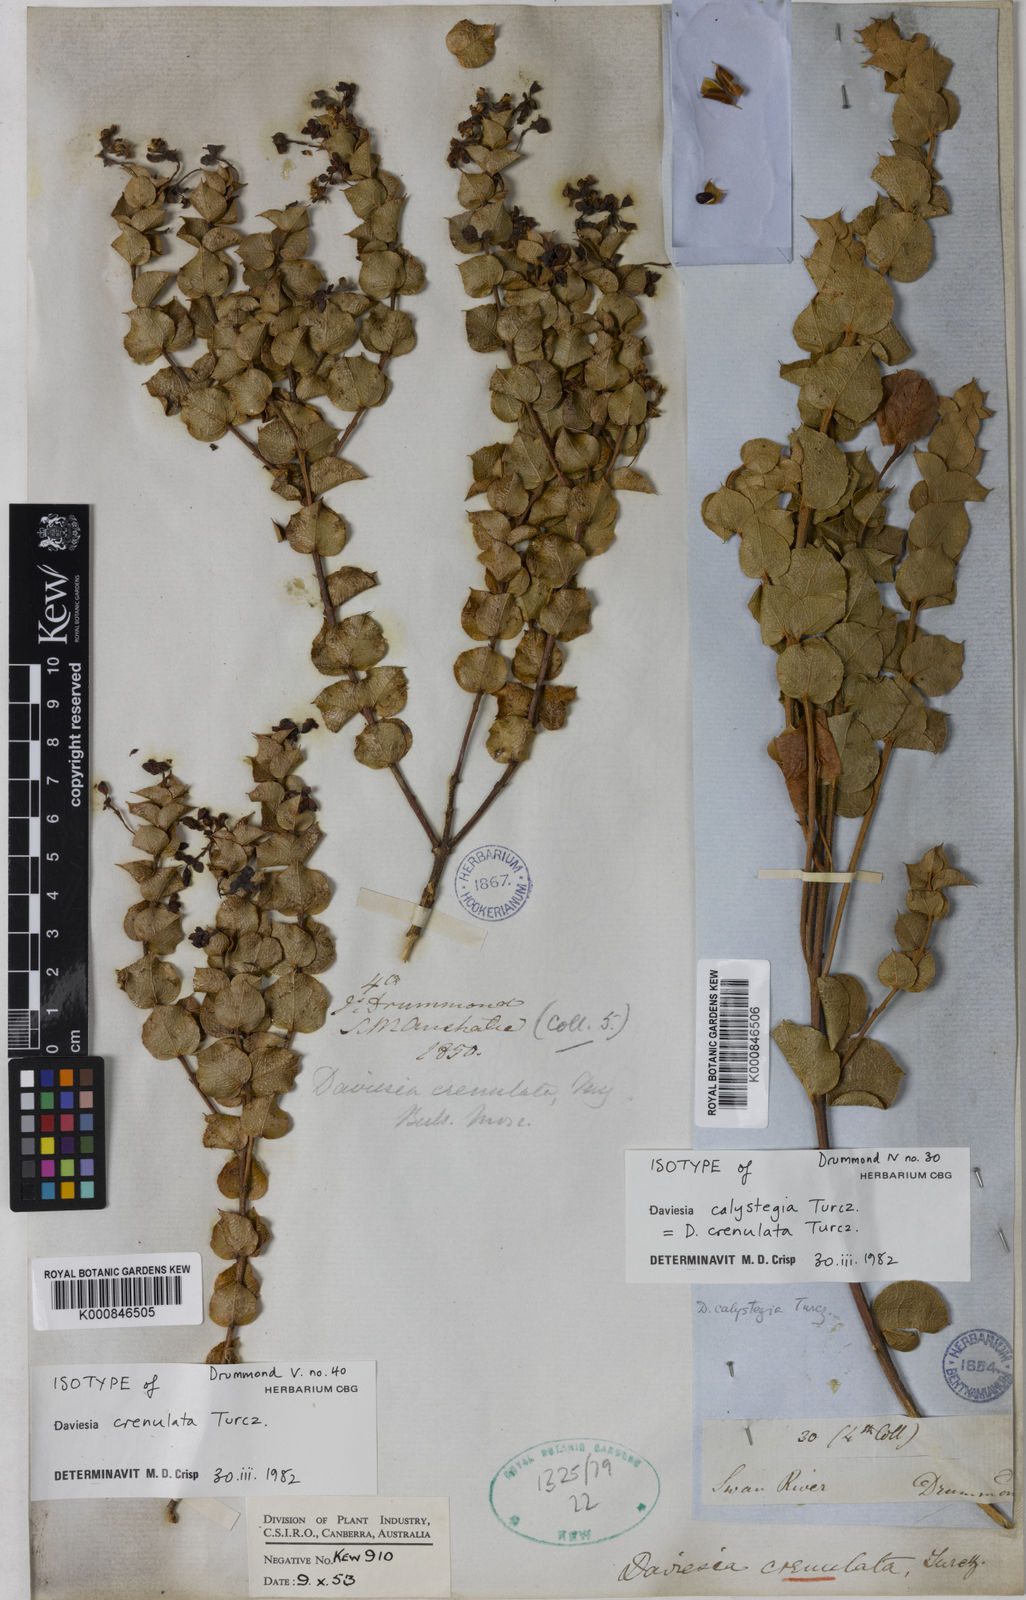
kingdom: Plantae
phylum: Tracheophyta
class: Magnoliopsida
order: Fabales
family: Fabaceae
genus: Daviesia
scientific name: Daviesia crenulata
